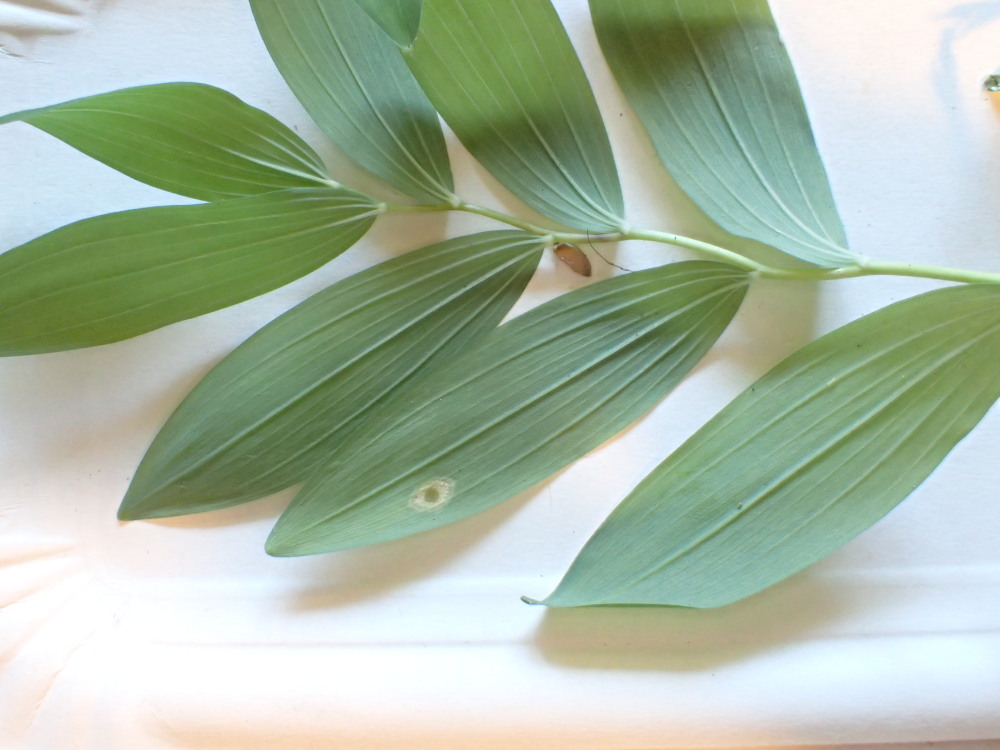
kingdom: Fungi
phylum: Basidiomycota
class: Pucciniomycetes
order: Pucciniales
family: Pucciniaceae
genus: Puccinia
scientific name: Puccinia sessilis
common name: Arum rust
